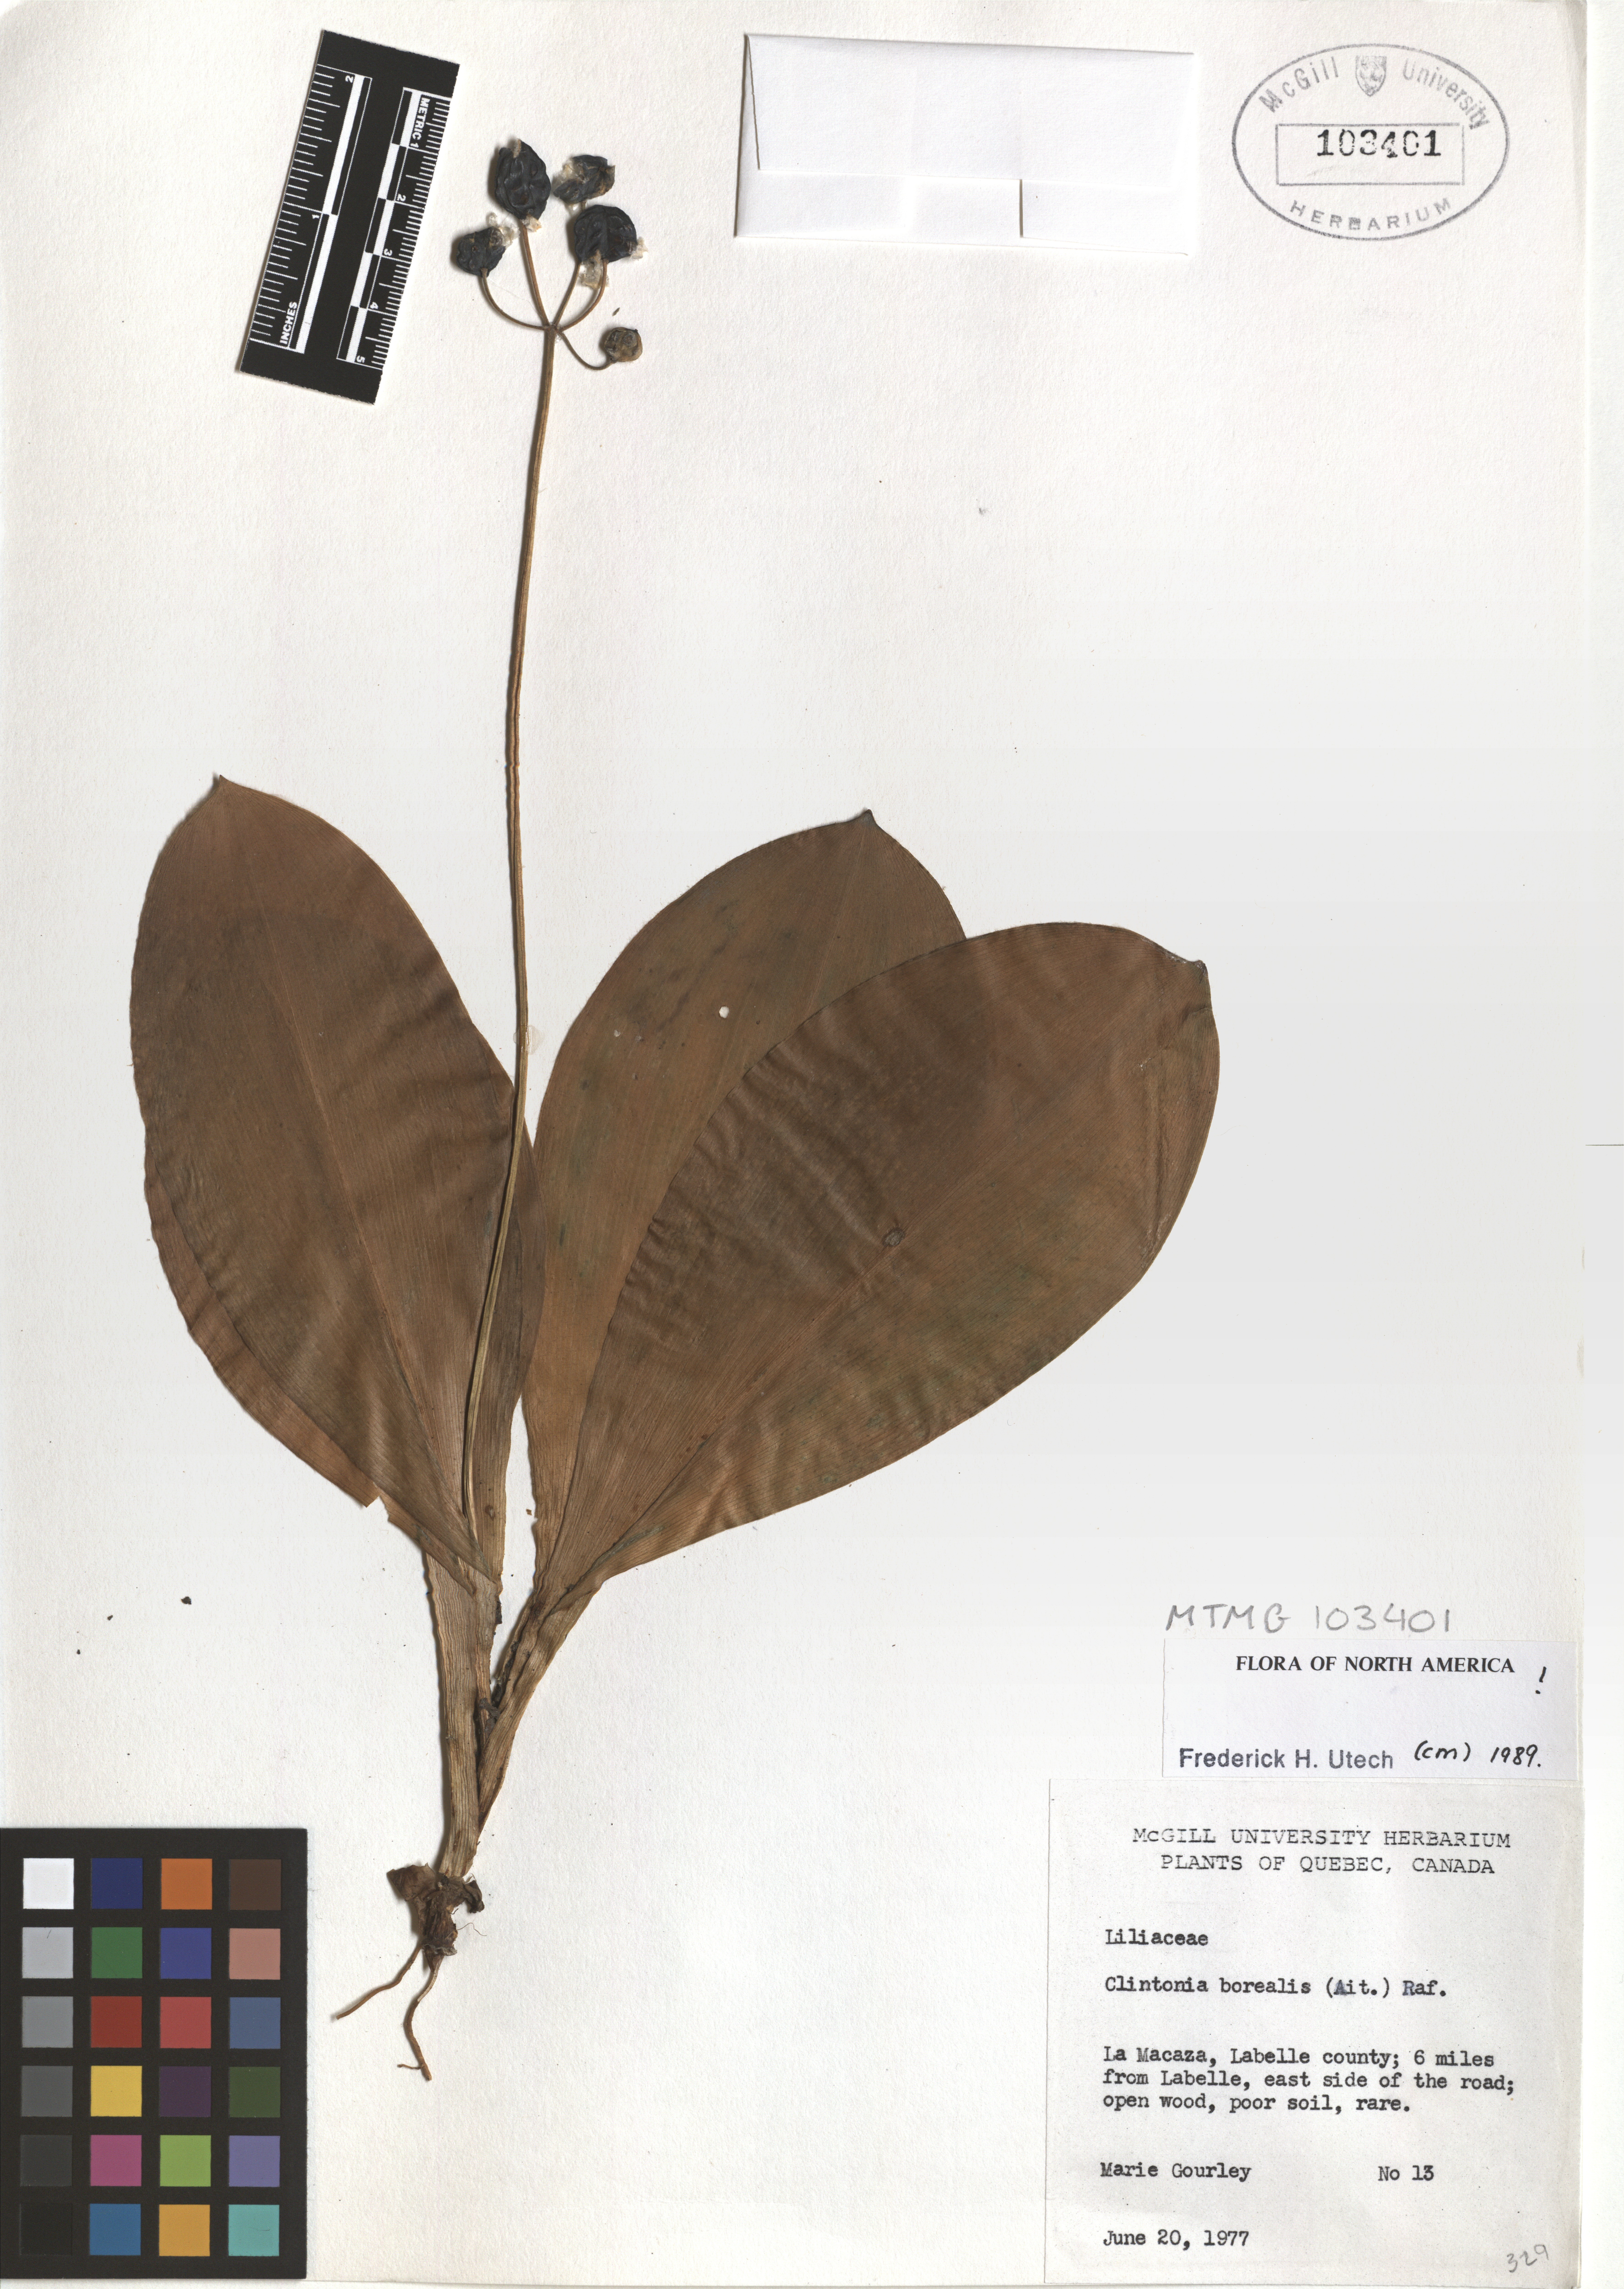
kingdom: Plantae
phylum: Tracheophyta
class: Liliopsida
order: Liliales
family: Liliaceae
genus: Clintonia
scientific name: Clintonia borealis
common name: Yellow clintonia
